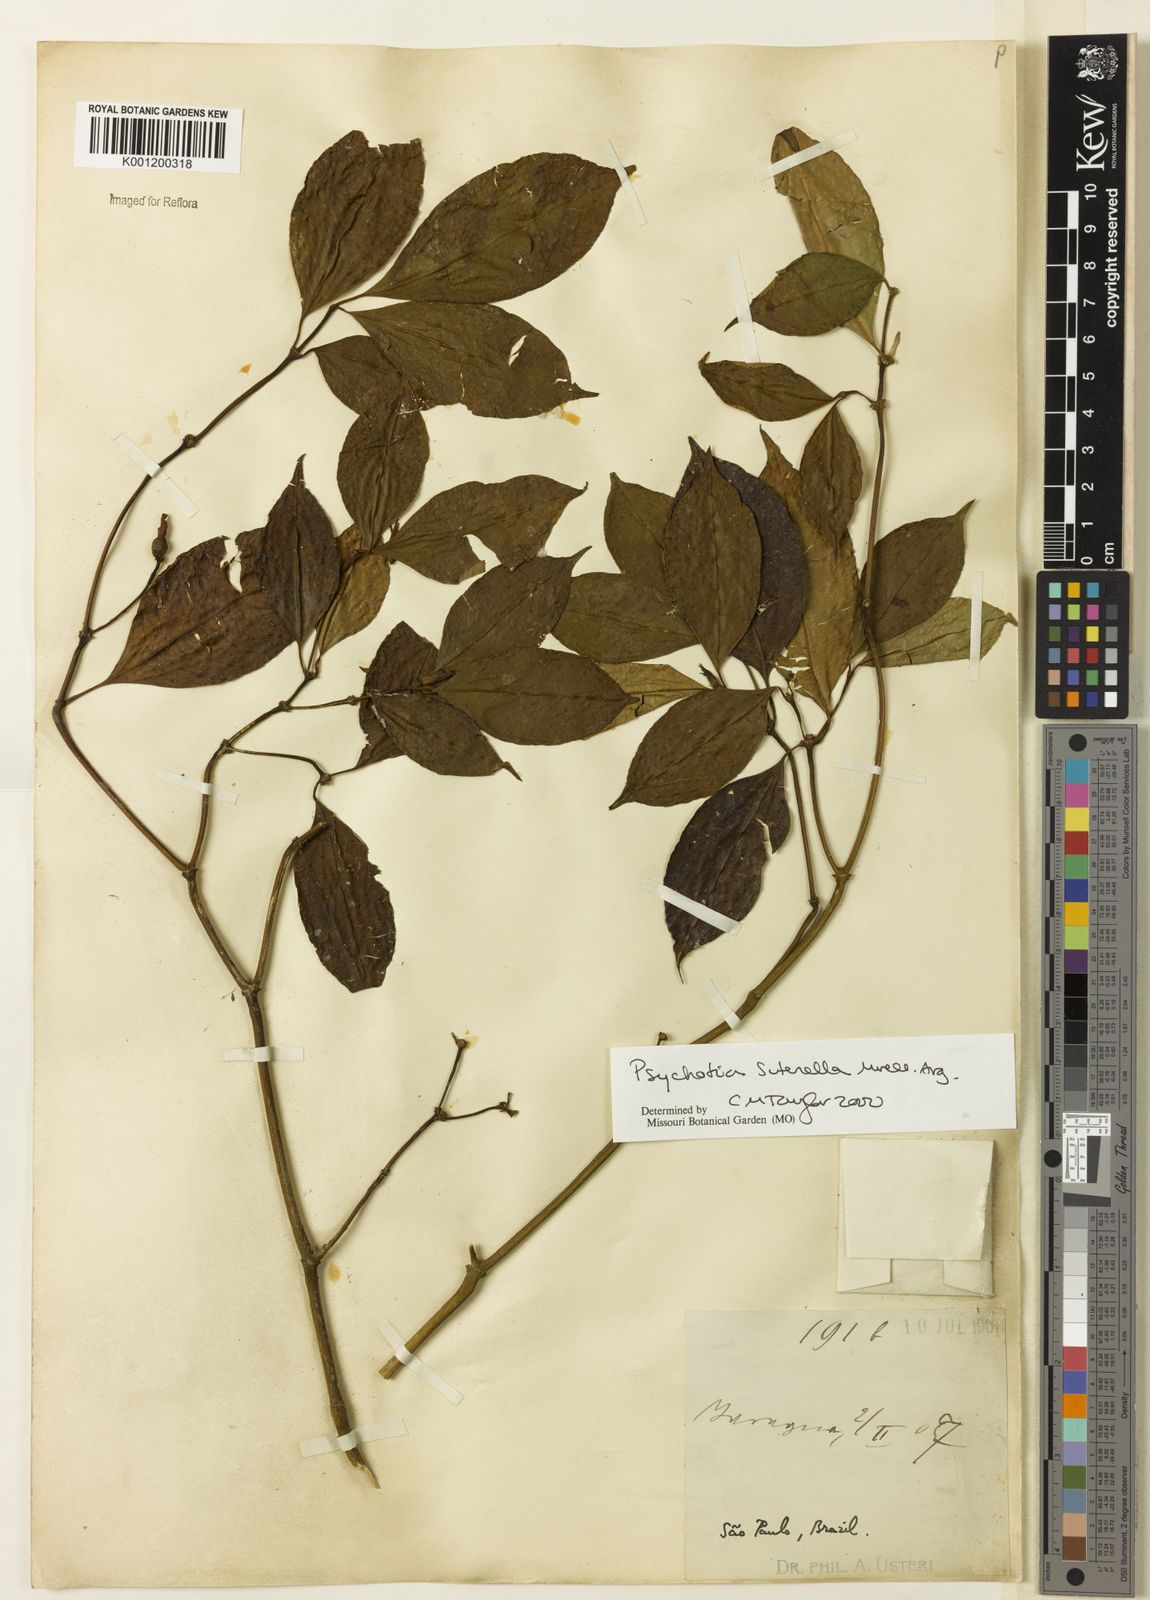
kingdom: Plantae
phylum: Tracheophyta
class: Magnoliopsida
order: Gentianales
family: Rubiaceae
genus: Psychotria
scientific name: Psychotria
